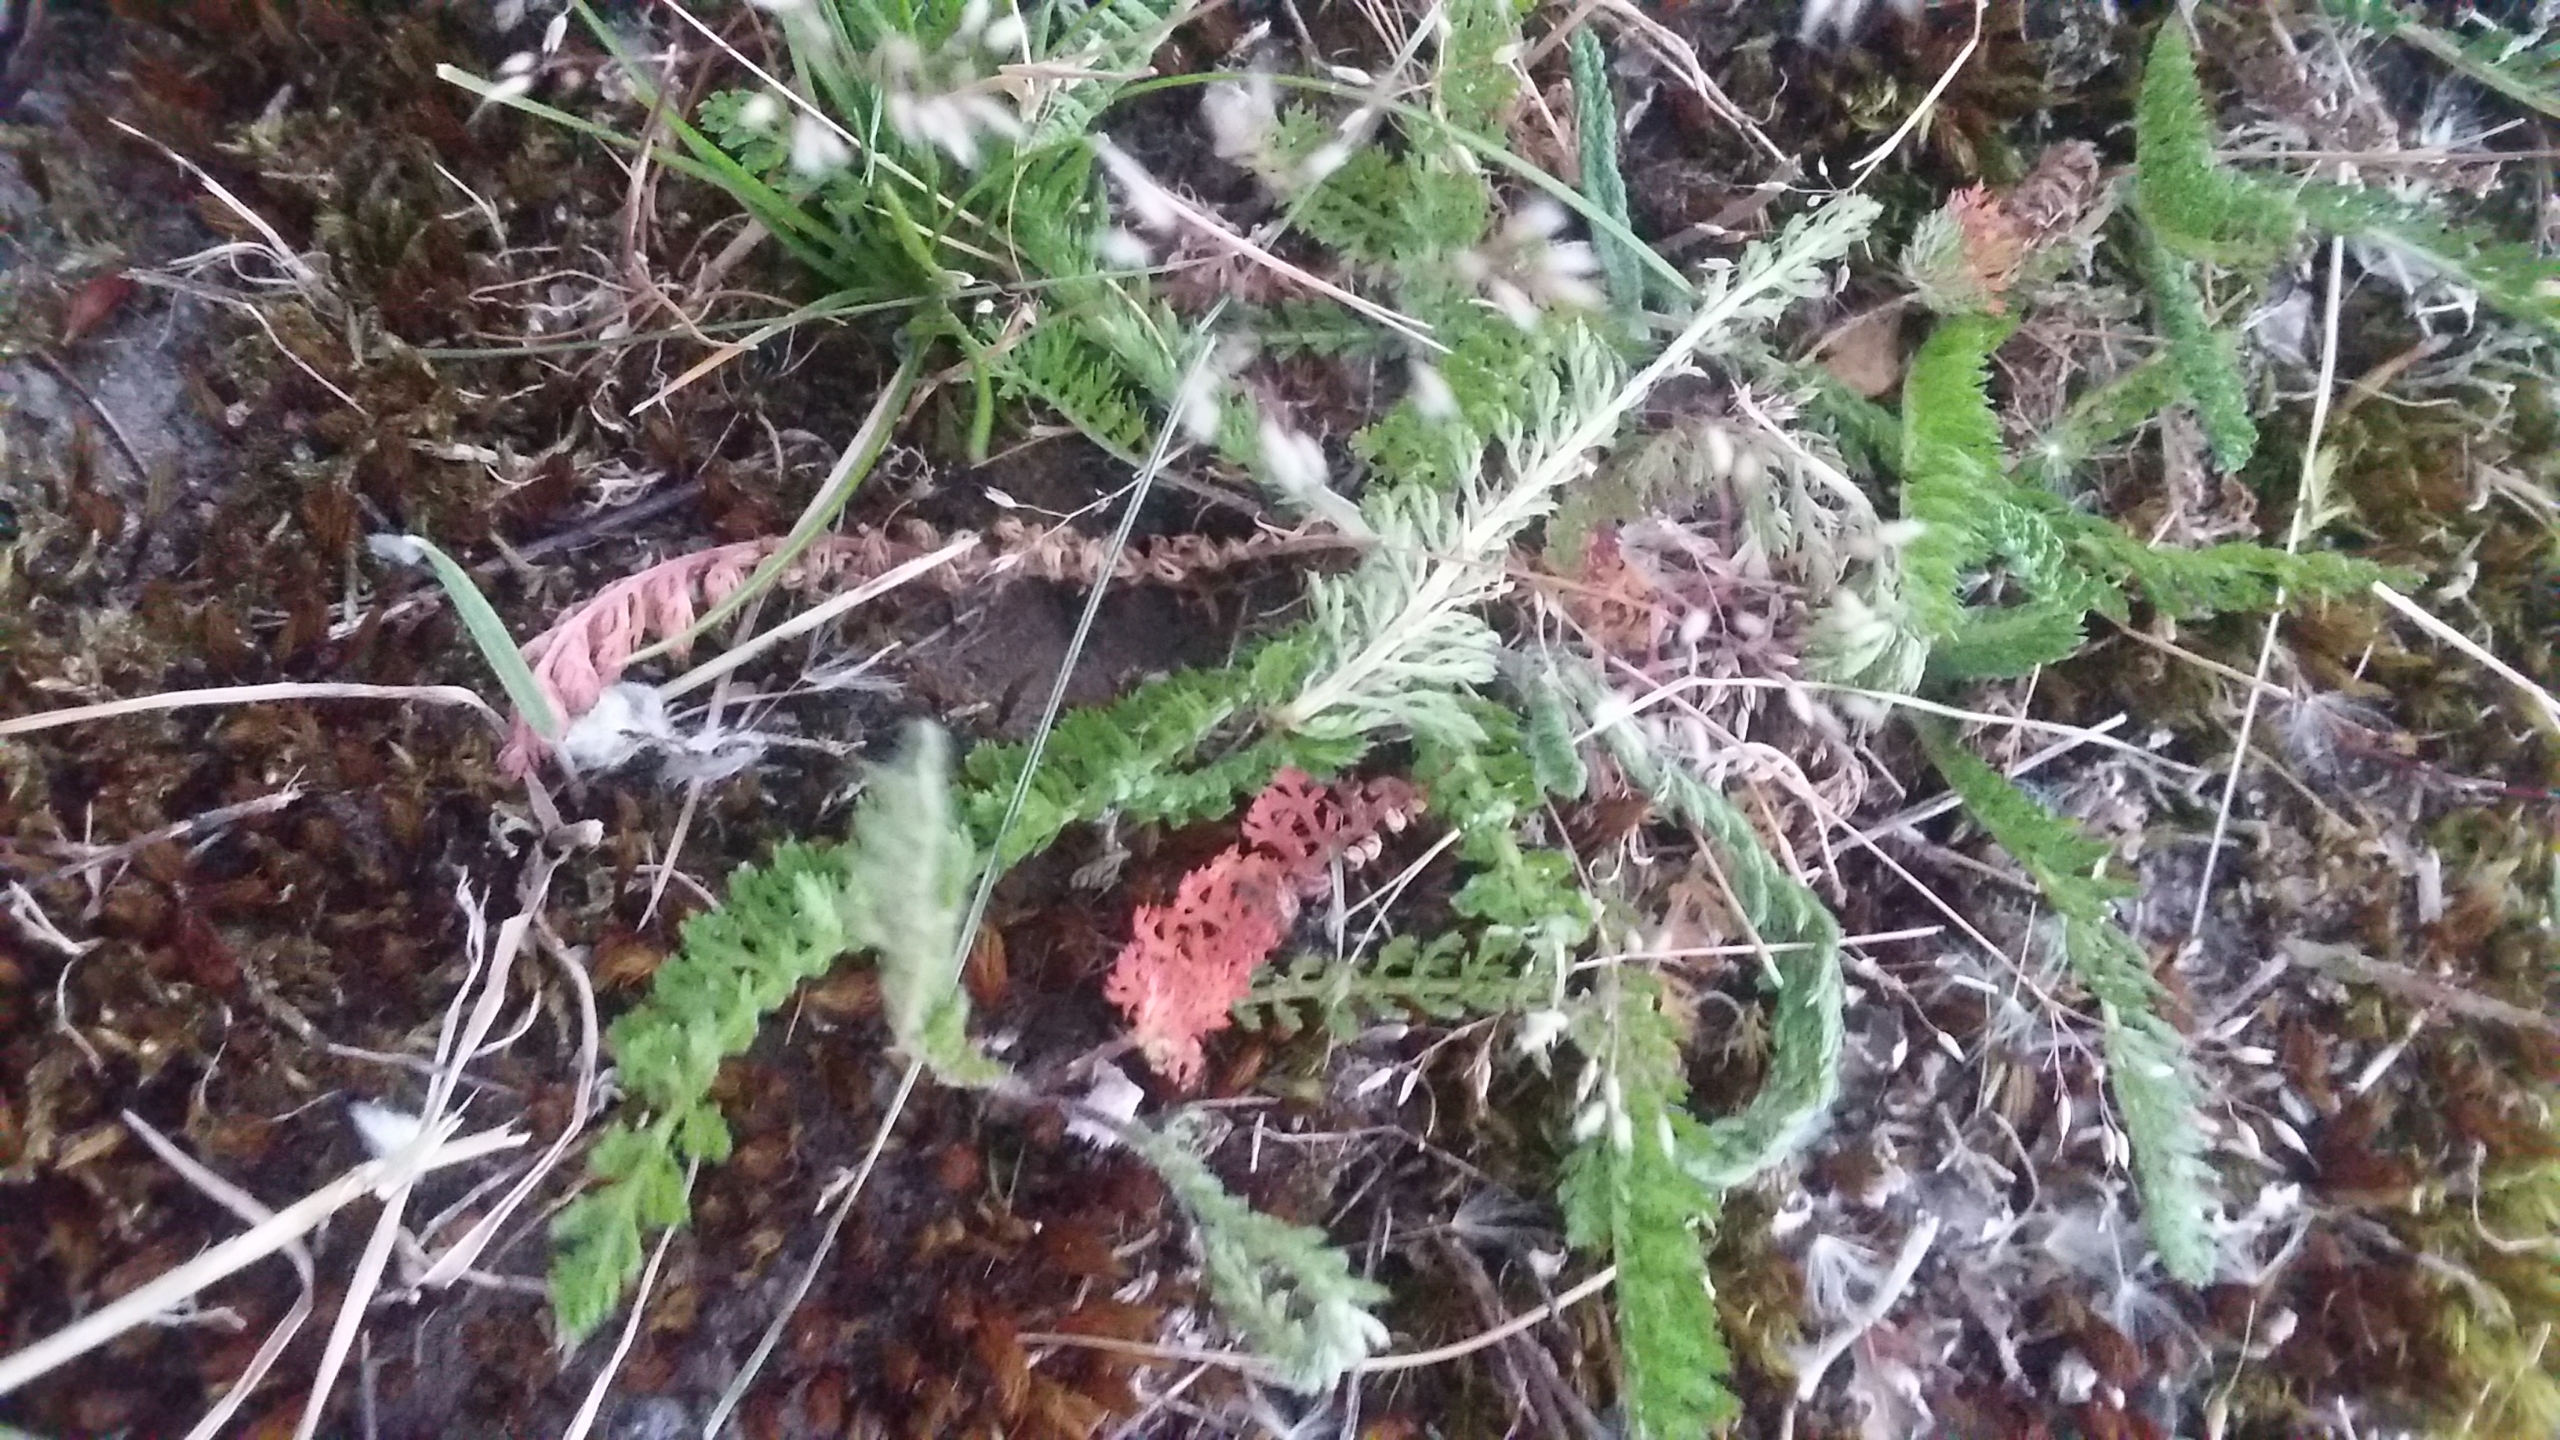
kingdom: Plantae
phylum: Tracheophyta
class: Magnoliopsida
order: Asterales
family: Asteraceae
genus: Achillea
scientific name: Achillea millefolium
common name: Almindelig røllike
